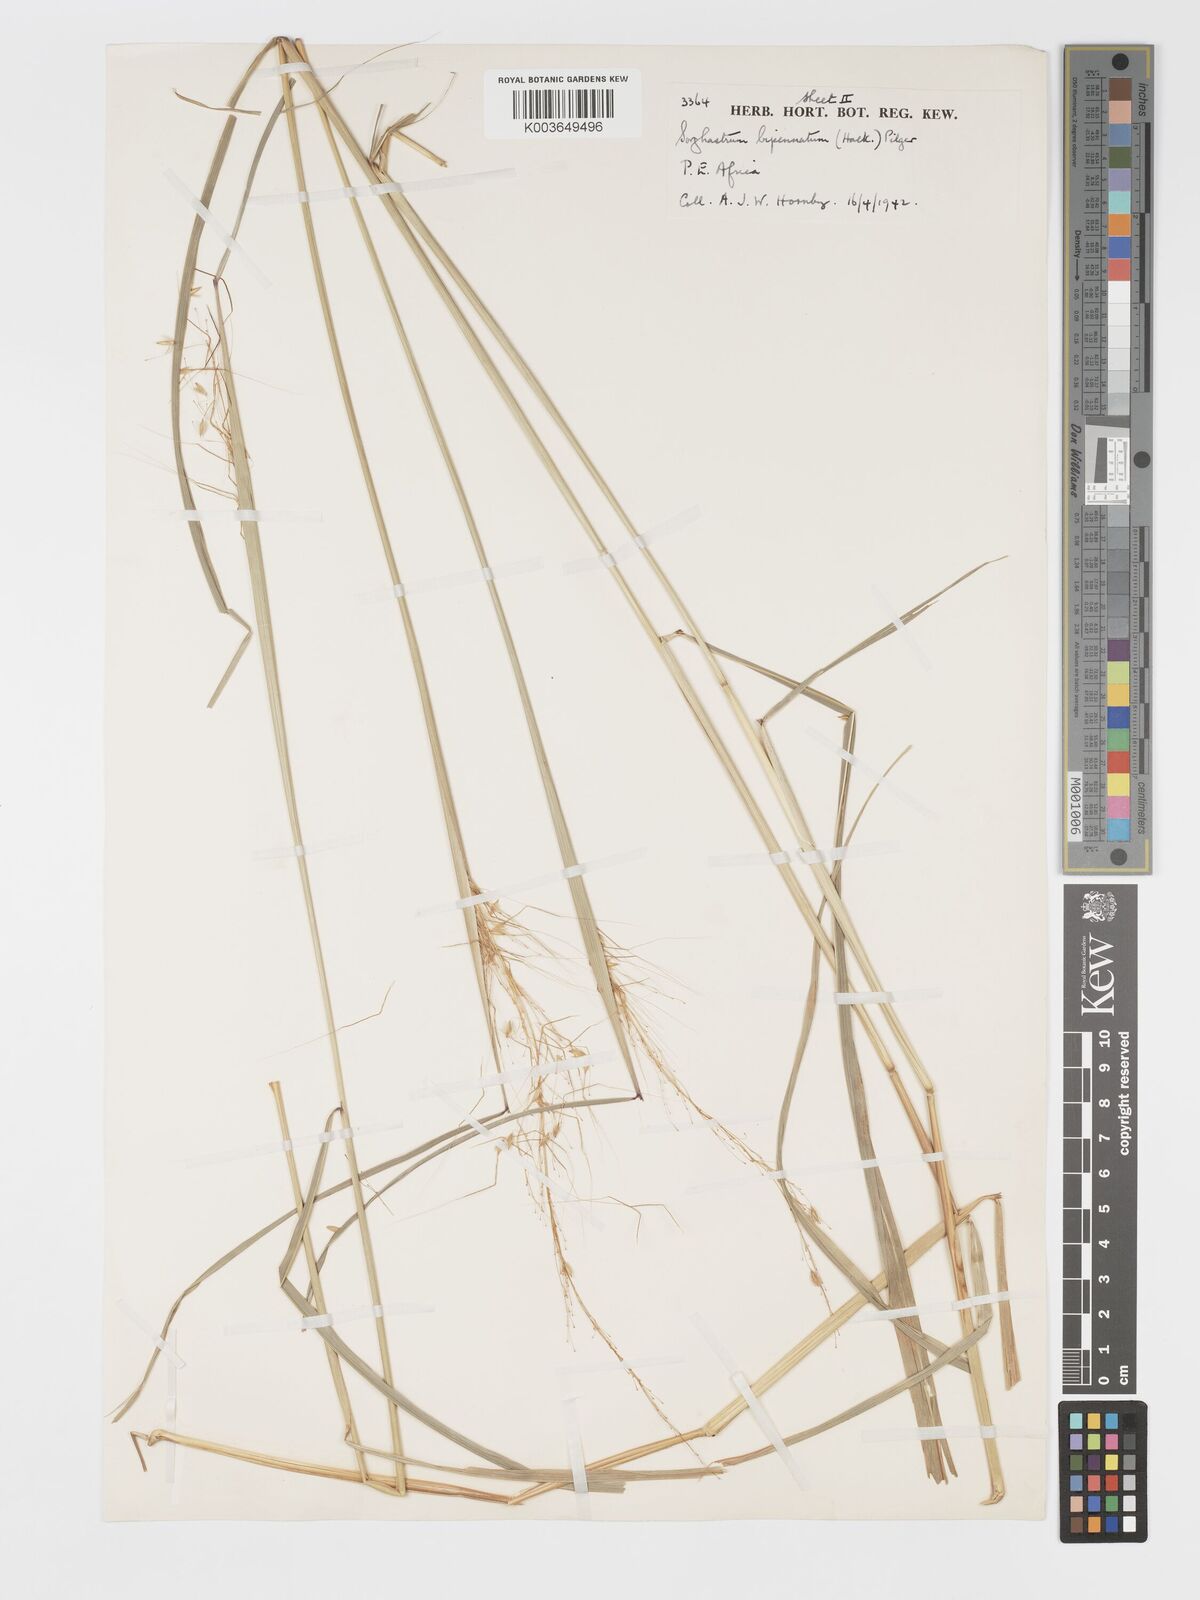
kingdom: Plantae
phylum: Tracheophyta
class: Liliopsida
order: Poales
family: Poaceae
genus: Sorghastrum
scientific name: Sorghastrum incompletum
